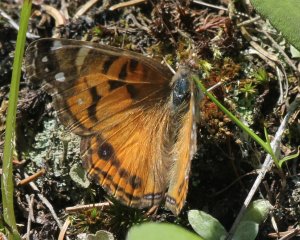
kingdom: Animalia
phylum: Arthropoda
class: Insecta
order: Lepidoptera
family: Nymphalidae
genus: Vanessa
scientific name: Vanessa virginiensis
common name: American Lady
